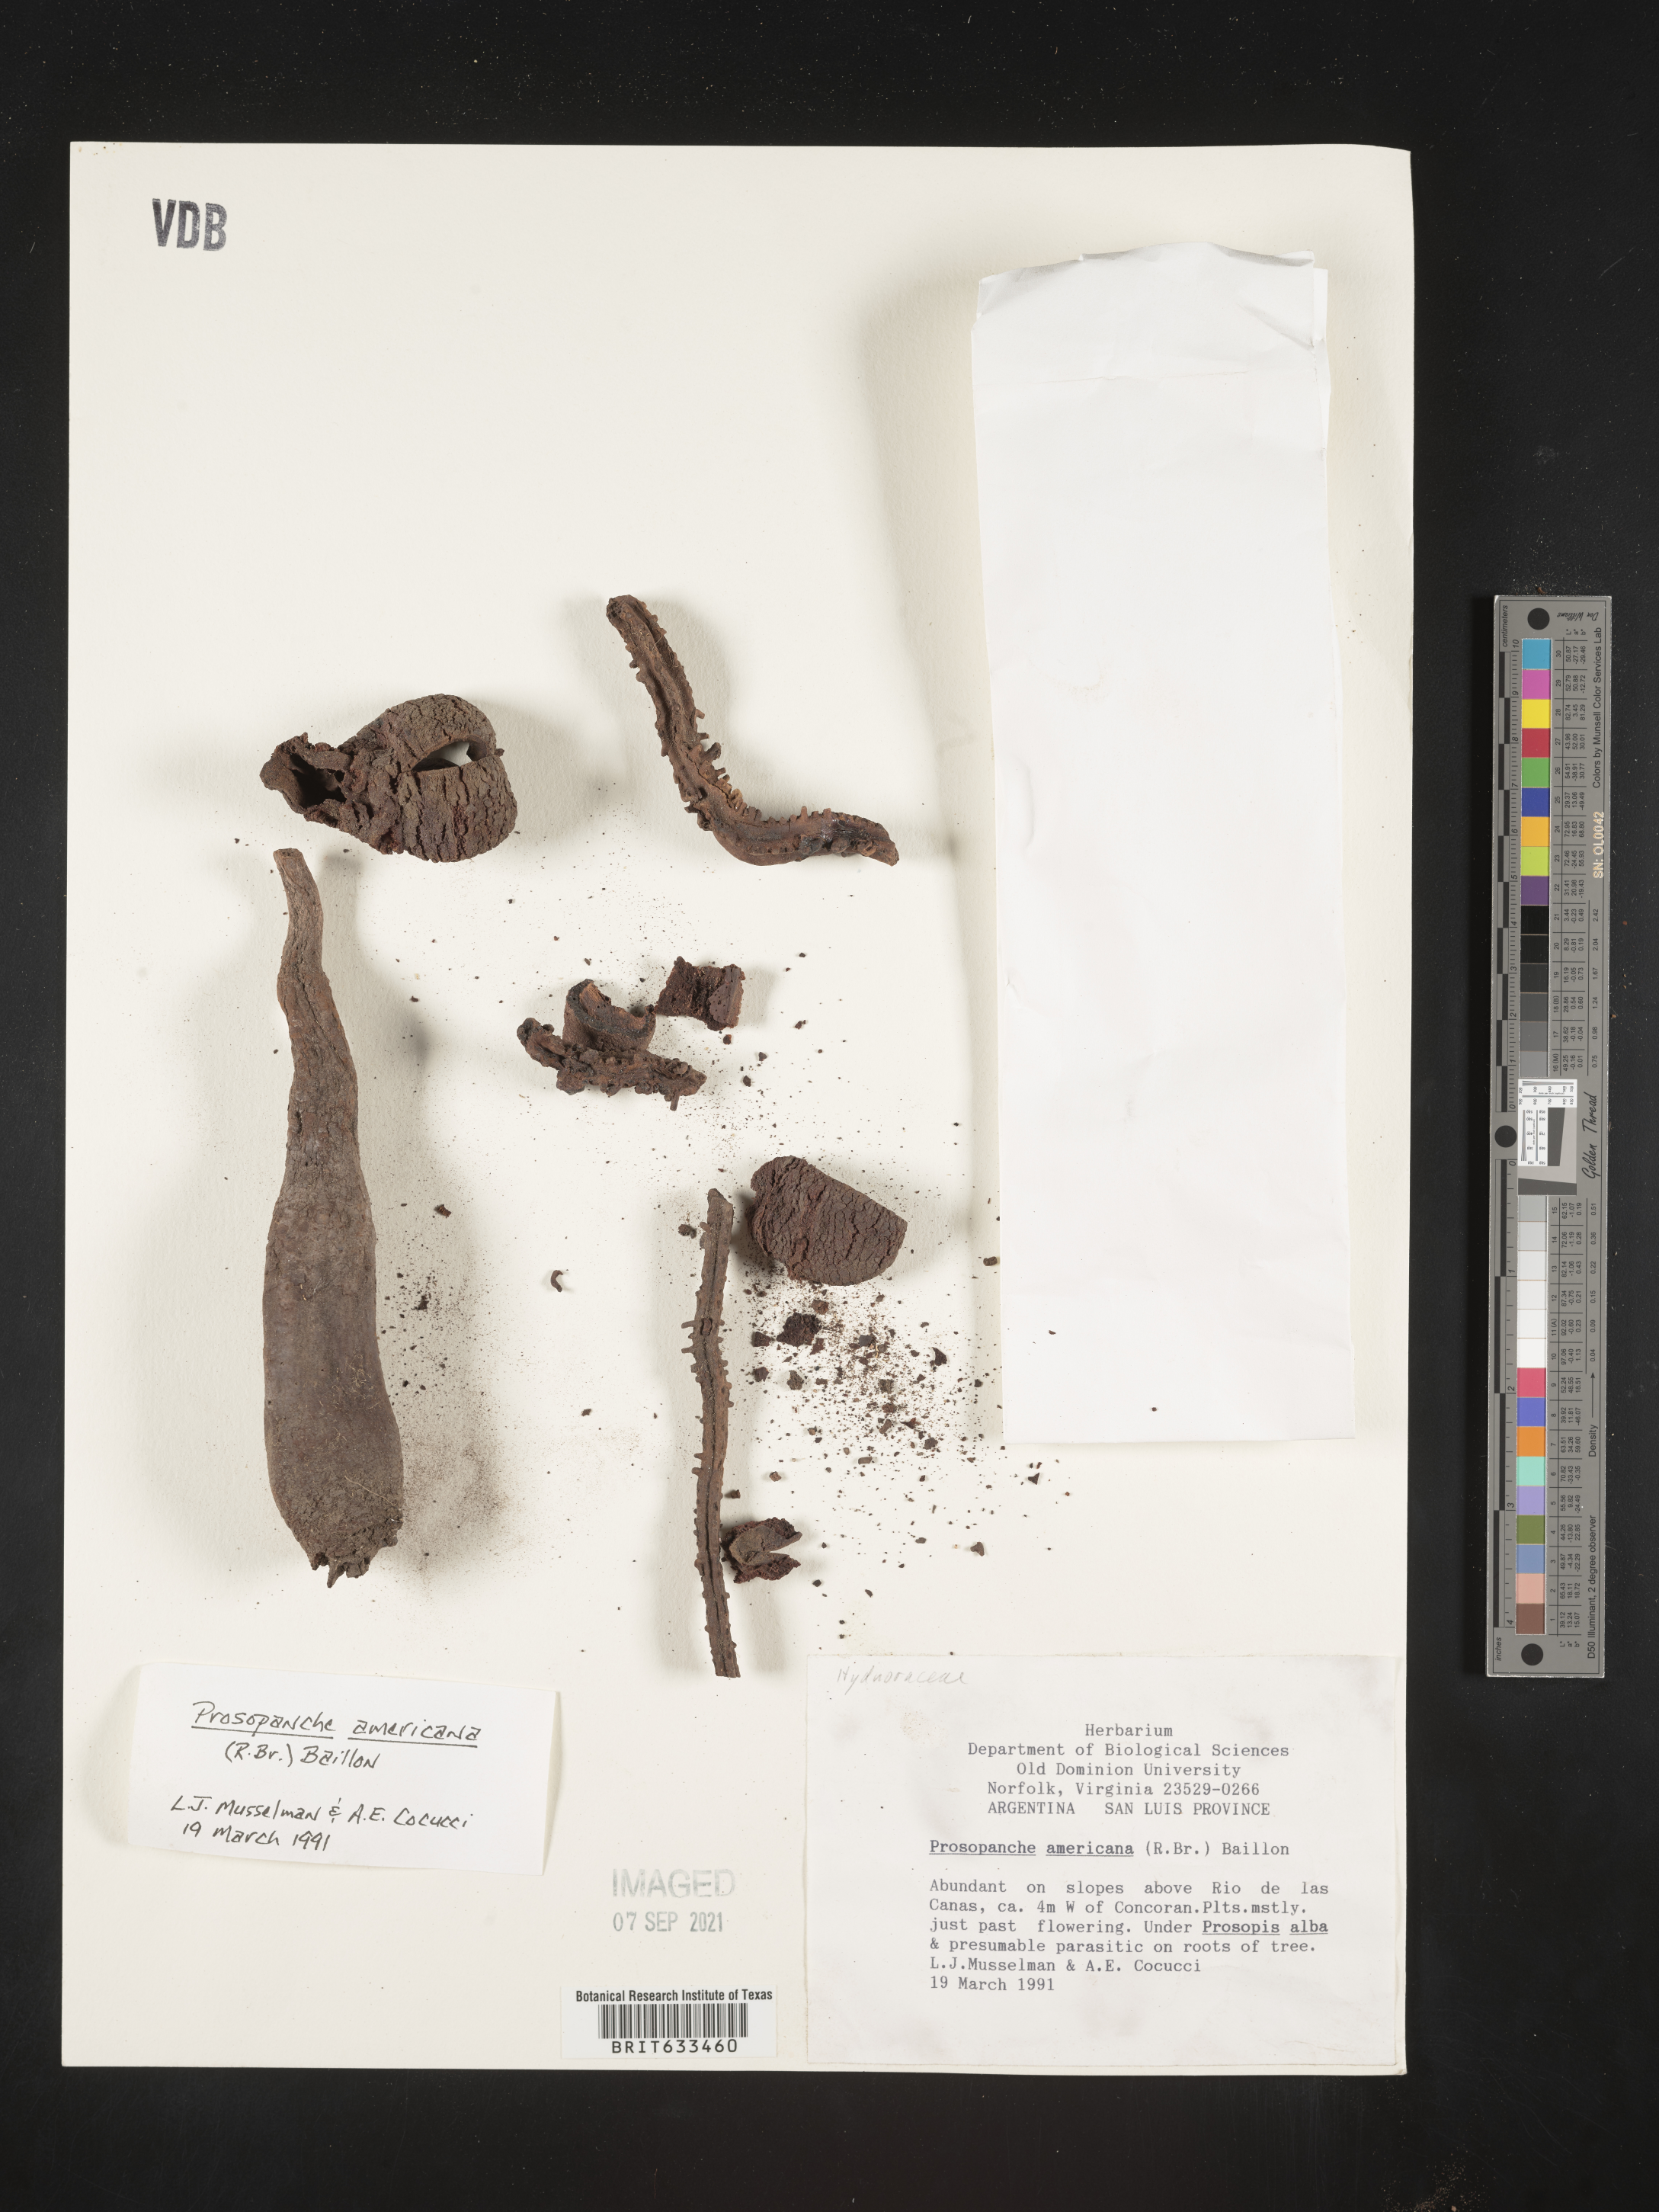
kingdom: Plantae
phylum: Tracheophyta
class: Magnoliopsida
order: Piperales
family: Hydnoraceae
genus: Prosopanche
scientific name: Prosopanche americana
